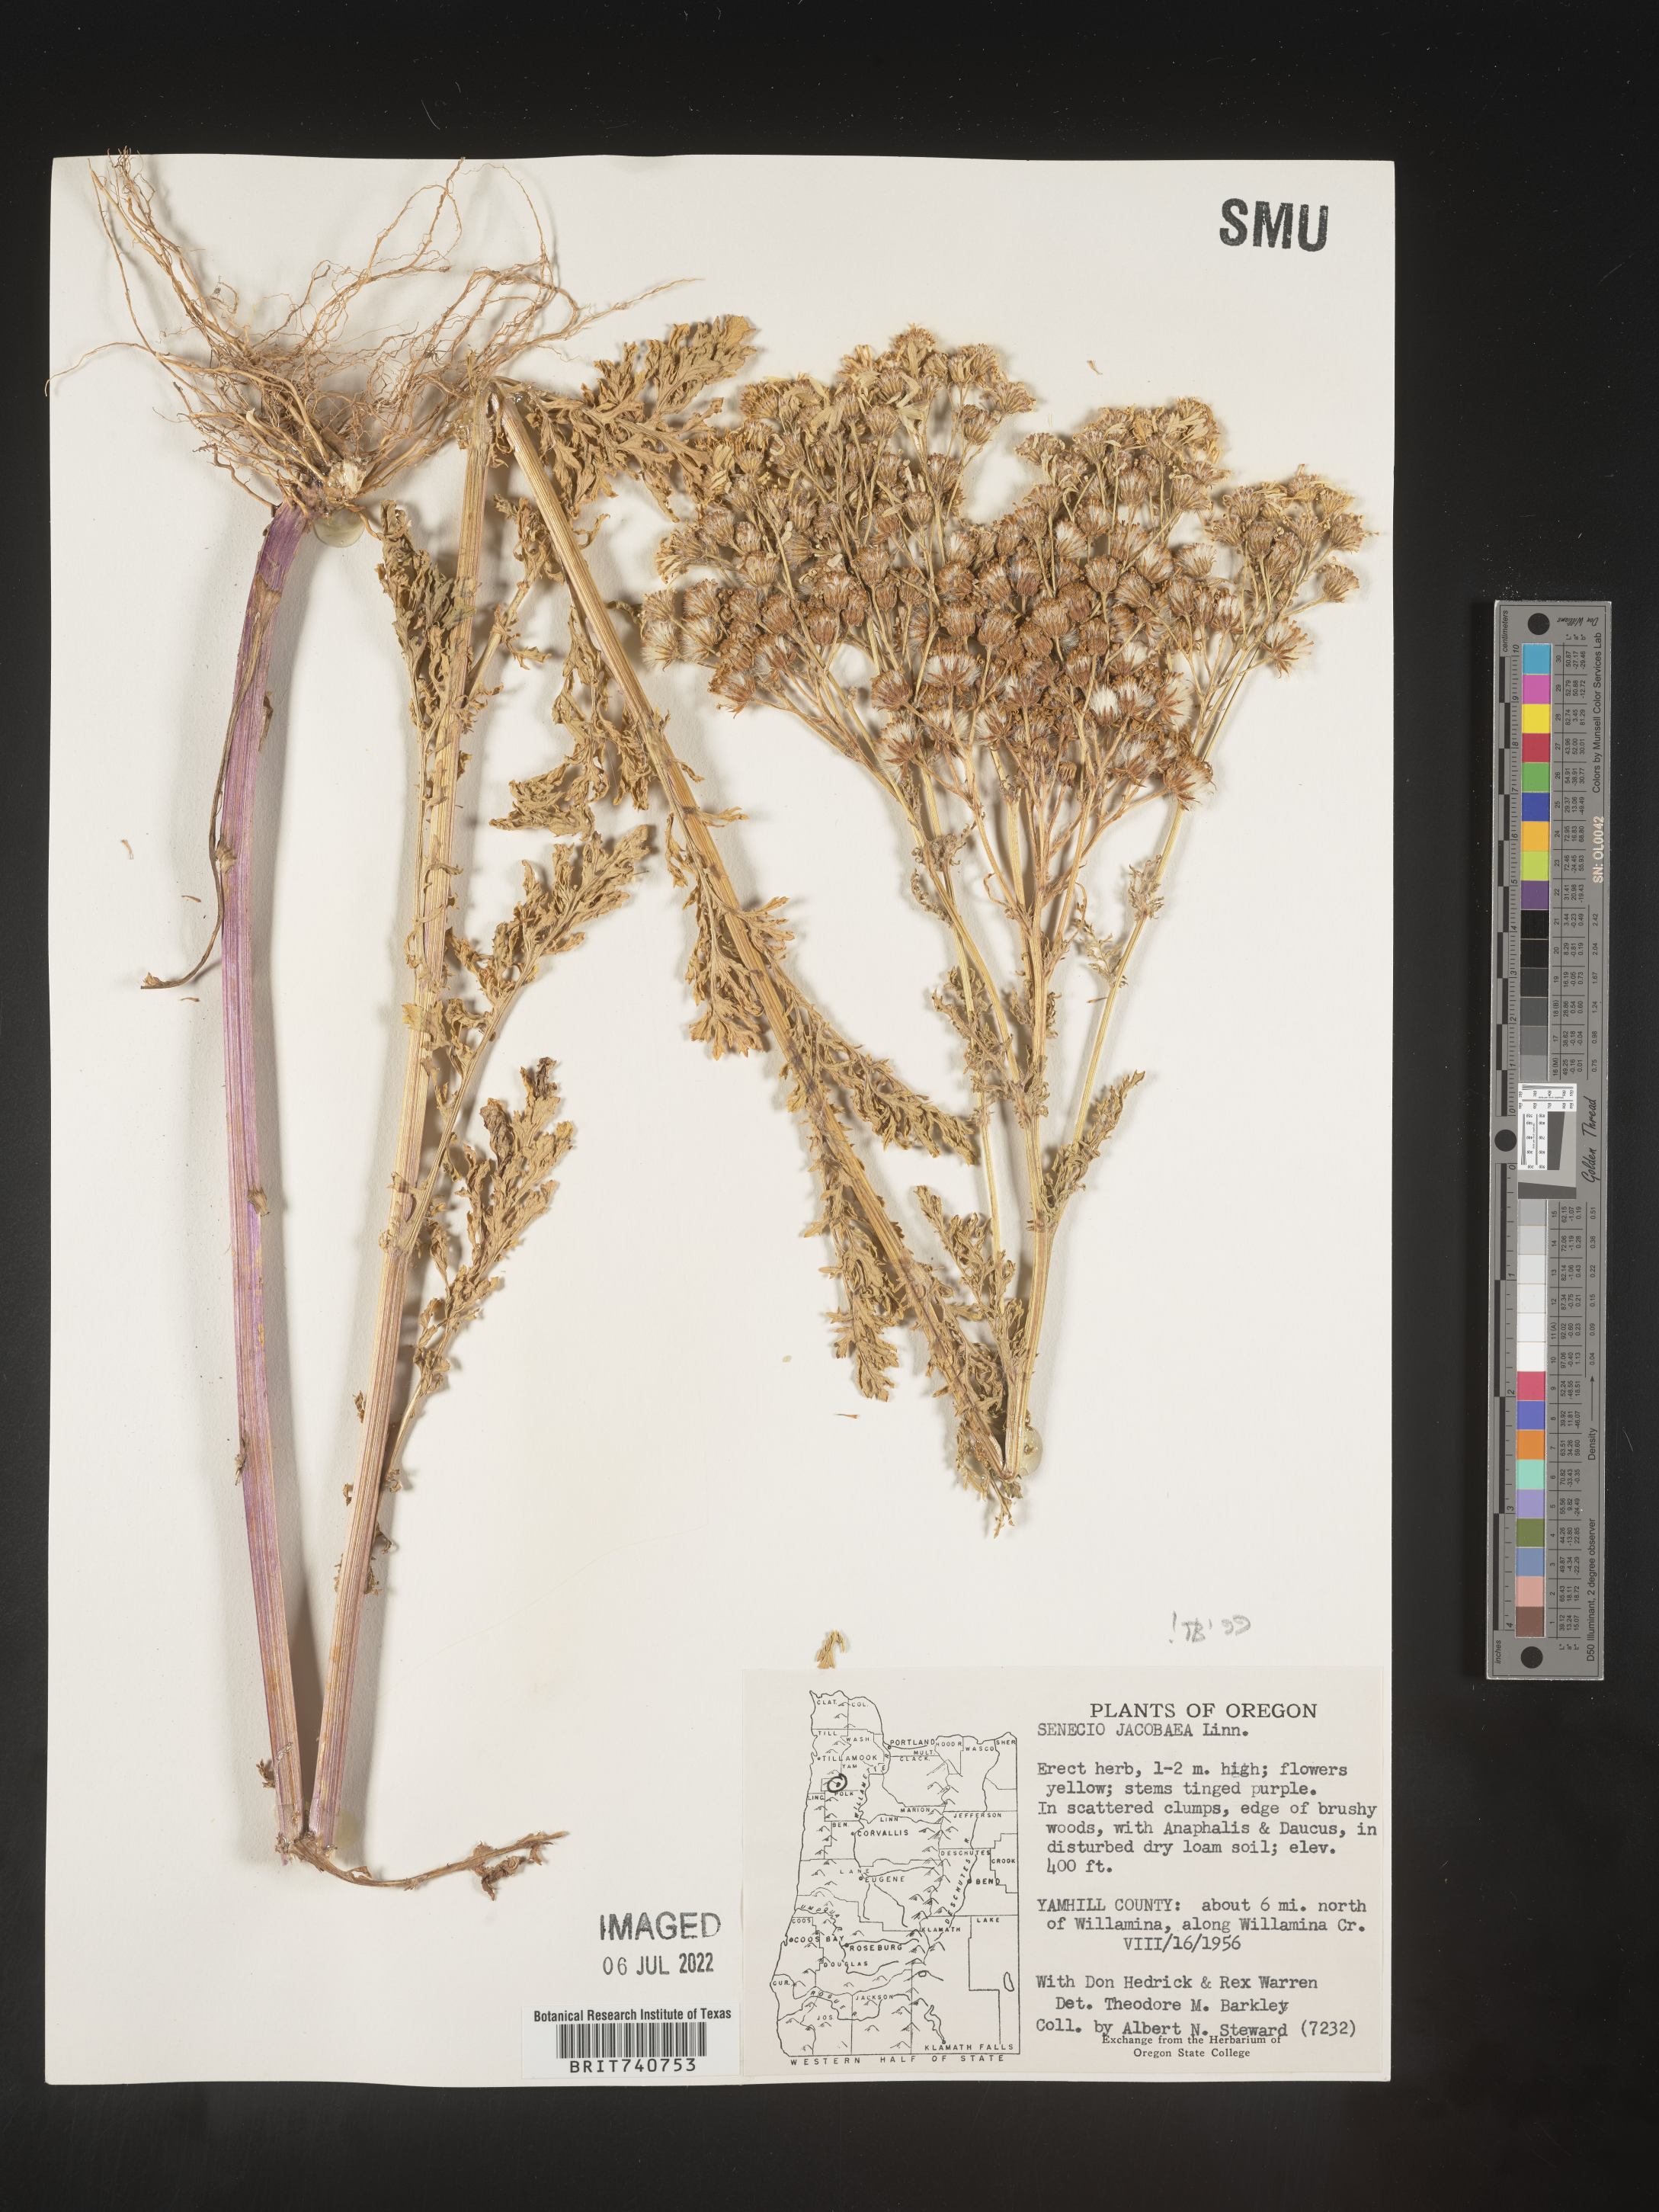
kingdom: Plantae
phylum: Tracheophyta
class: Magnoliopsida
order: Asterales
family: Asteraceae
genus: Jacobaea
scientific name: Jacobaea vulgaris
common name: Stinking willie
